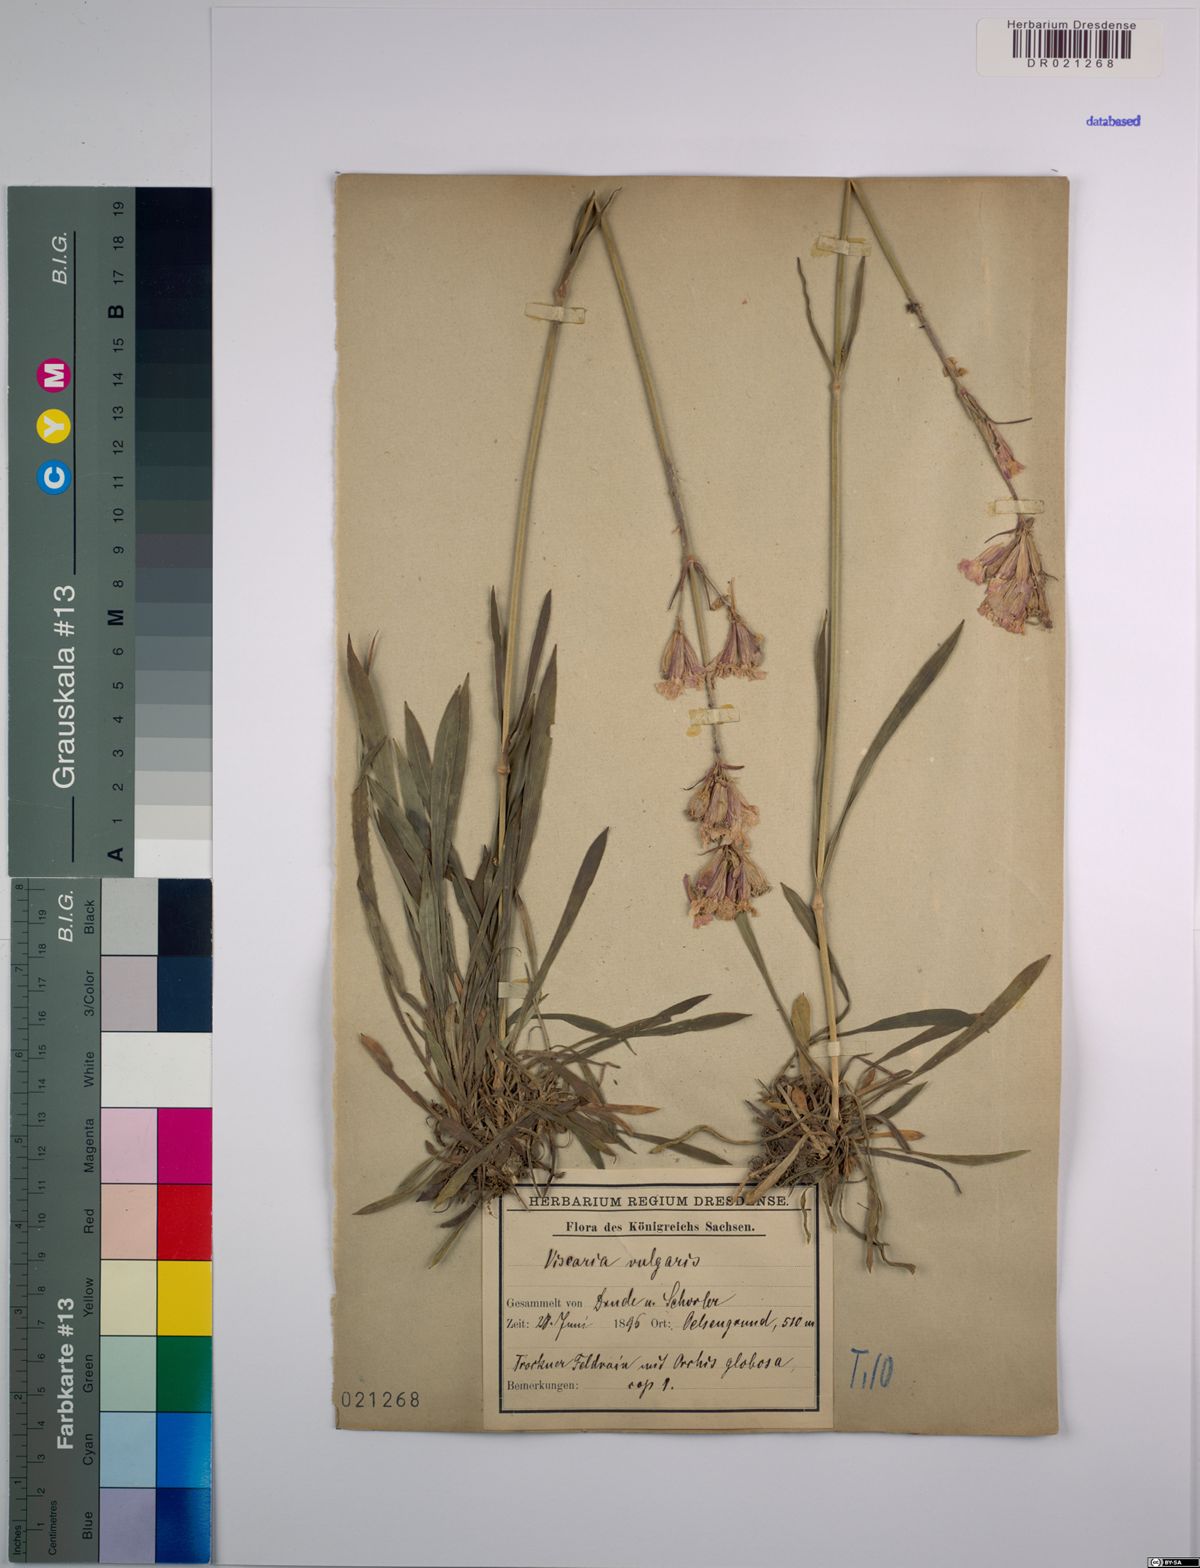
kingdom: Plantae
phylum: Tracheophyta
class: Magnoliopsida
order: Caryophyllales
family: Caryophyllaceae
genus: Viscaria
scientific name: Viscaria vulgaris
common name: Clammy campion
